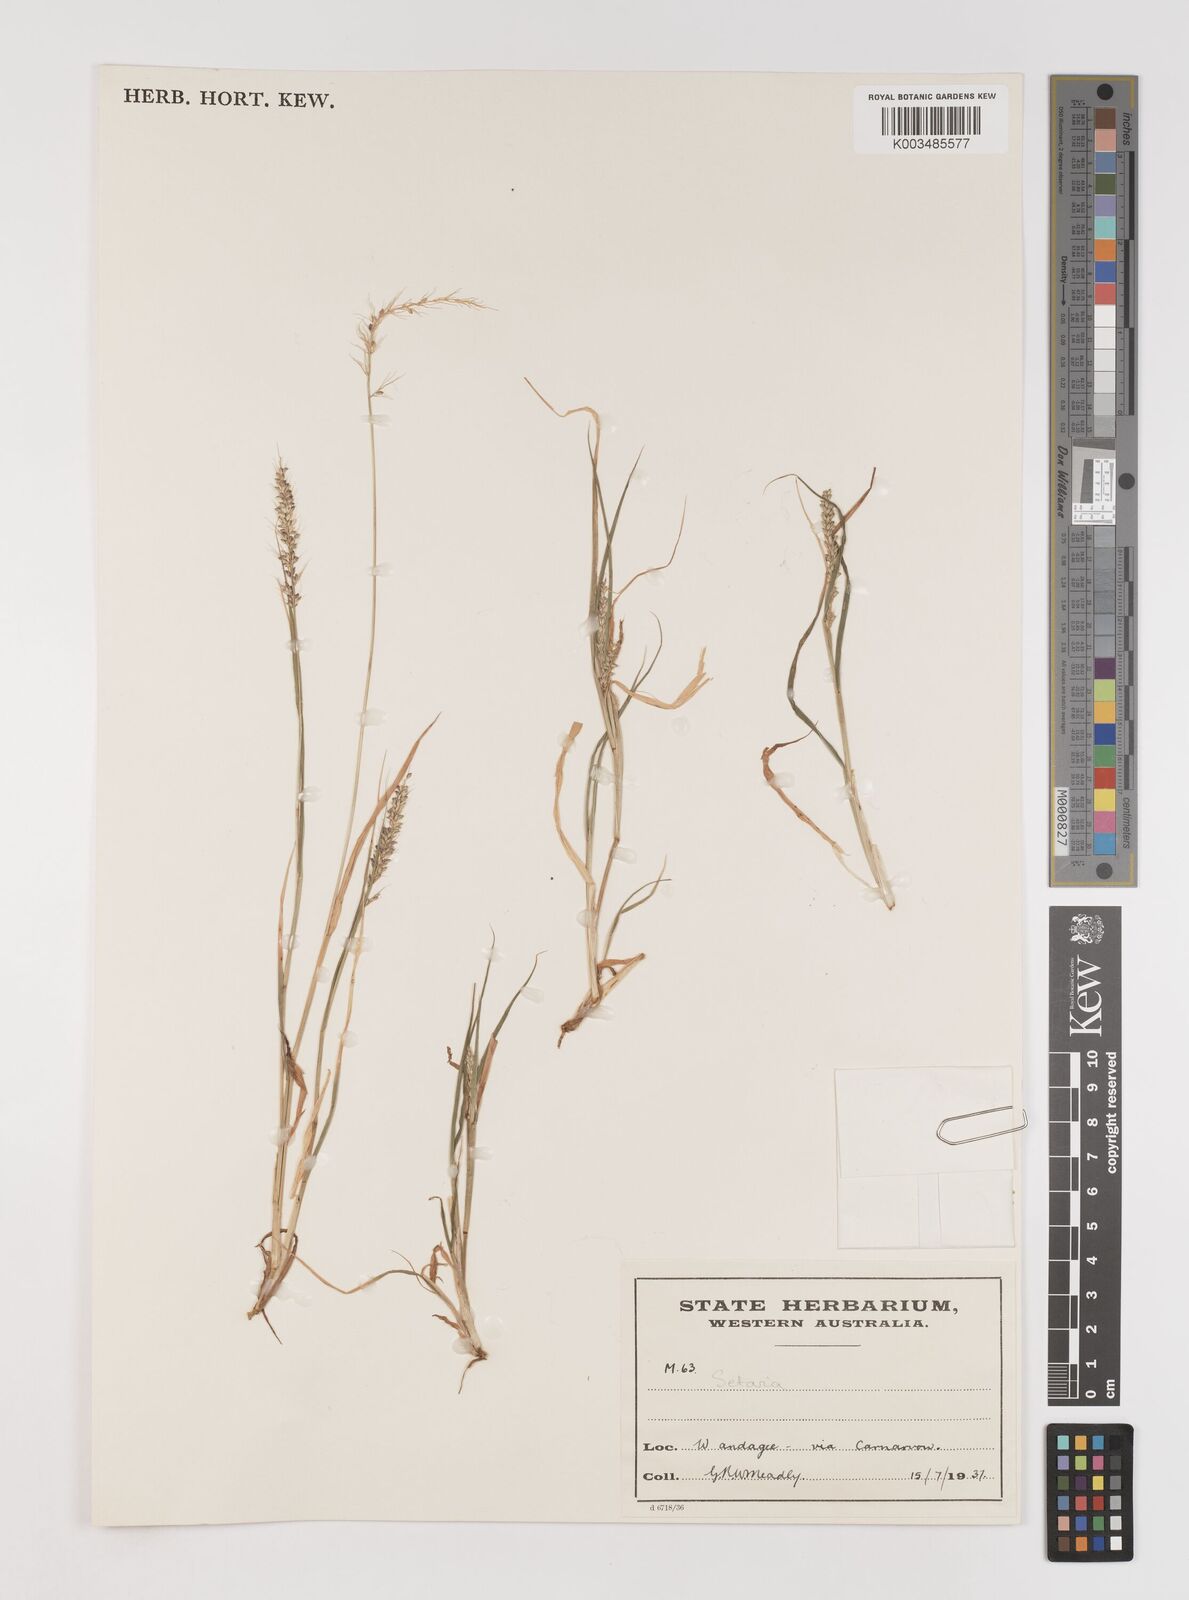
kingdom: Plantae
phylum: Tracheophyta
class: Liliopsida
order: Poales
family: Poaceae
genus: Setaria
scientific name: Setaria
